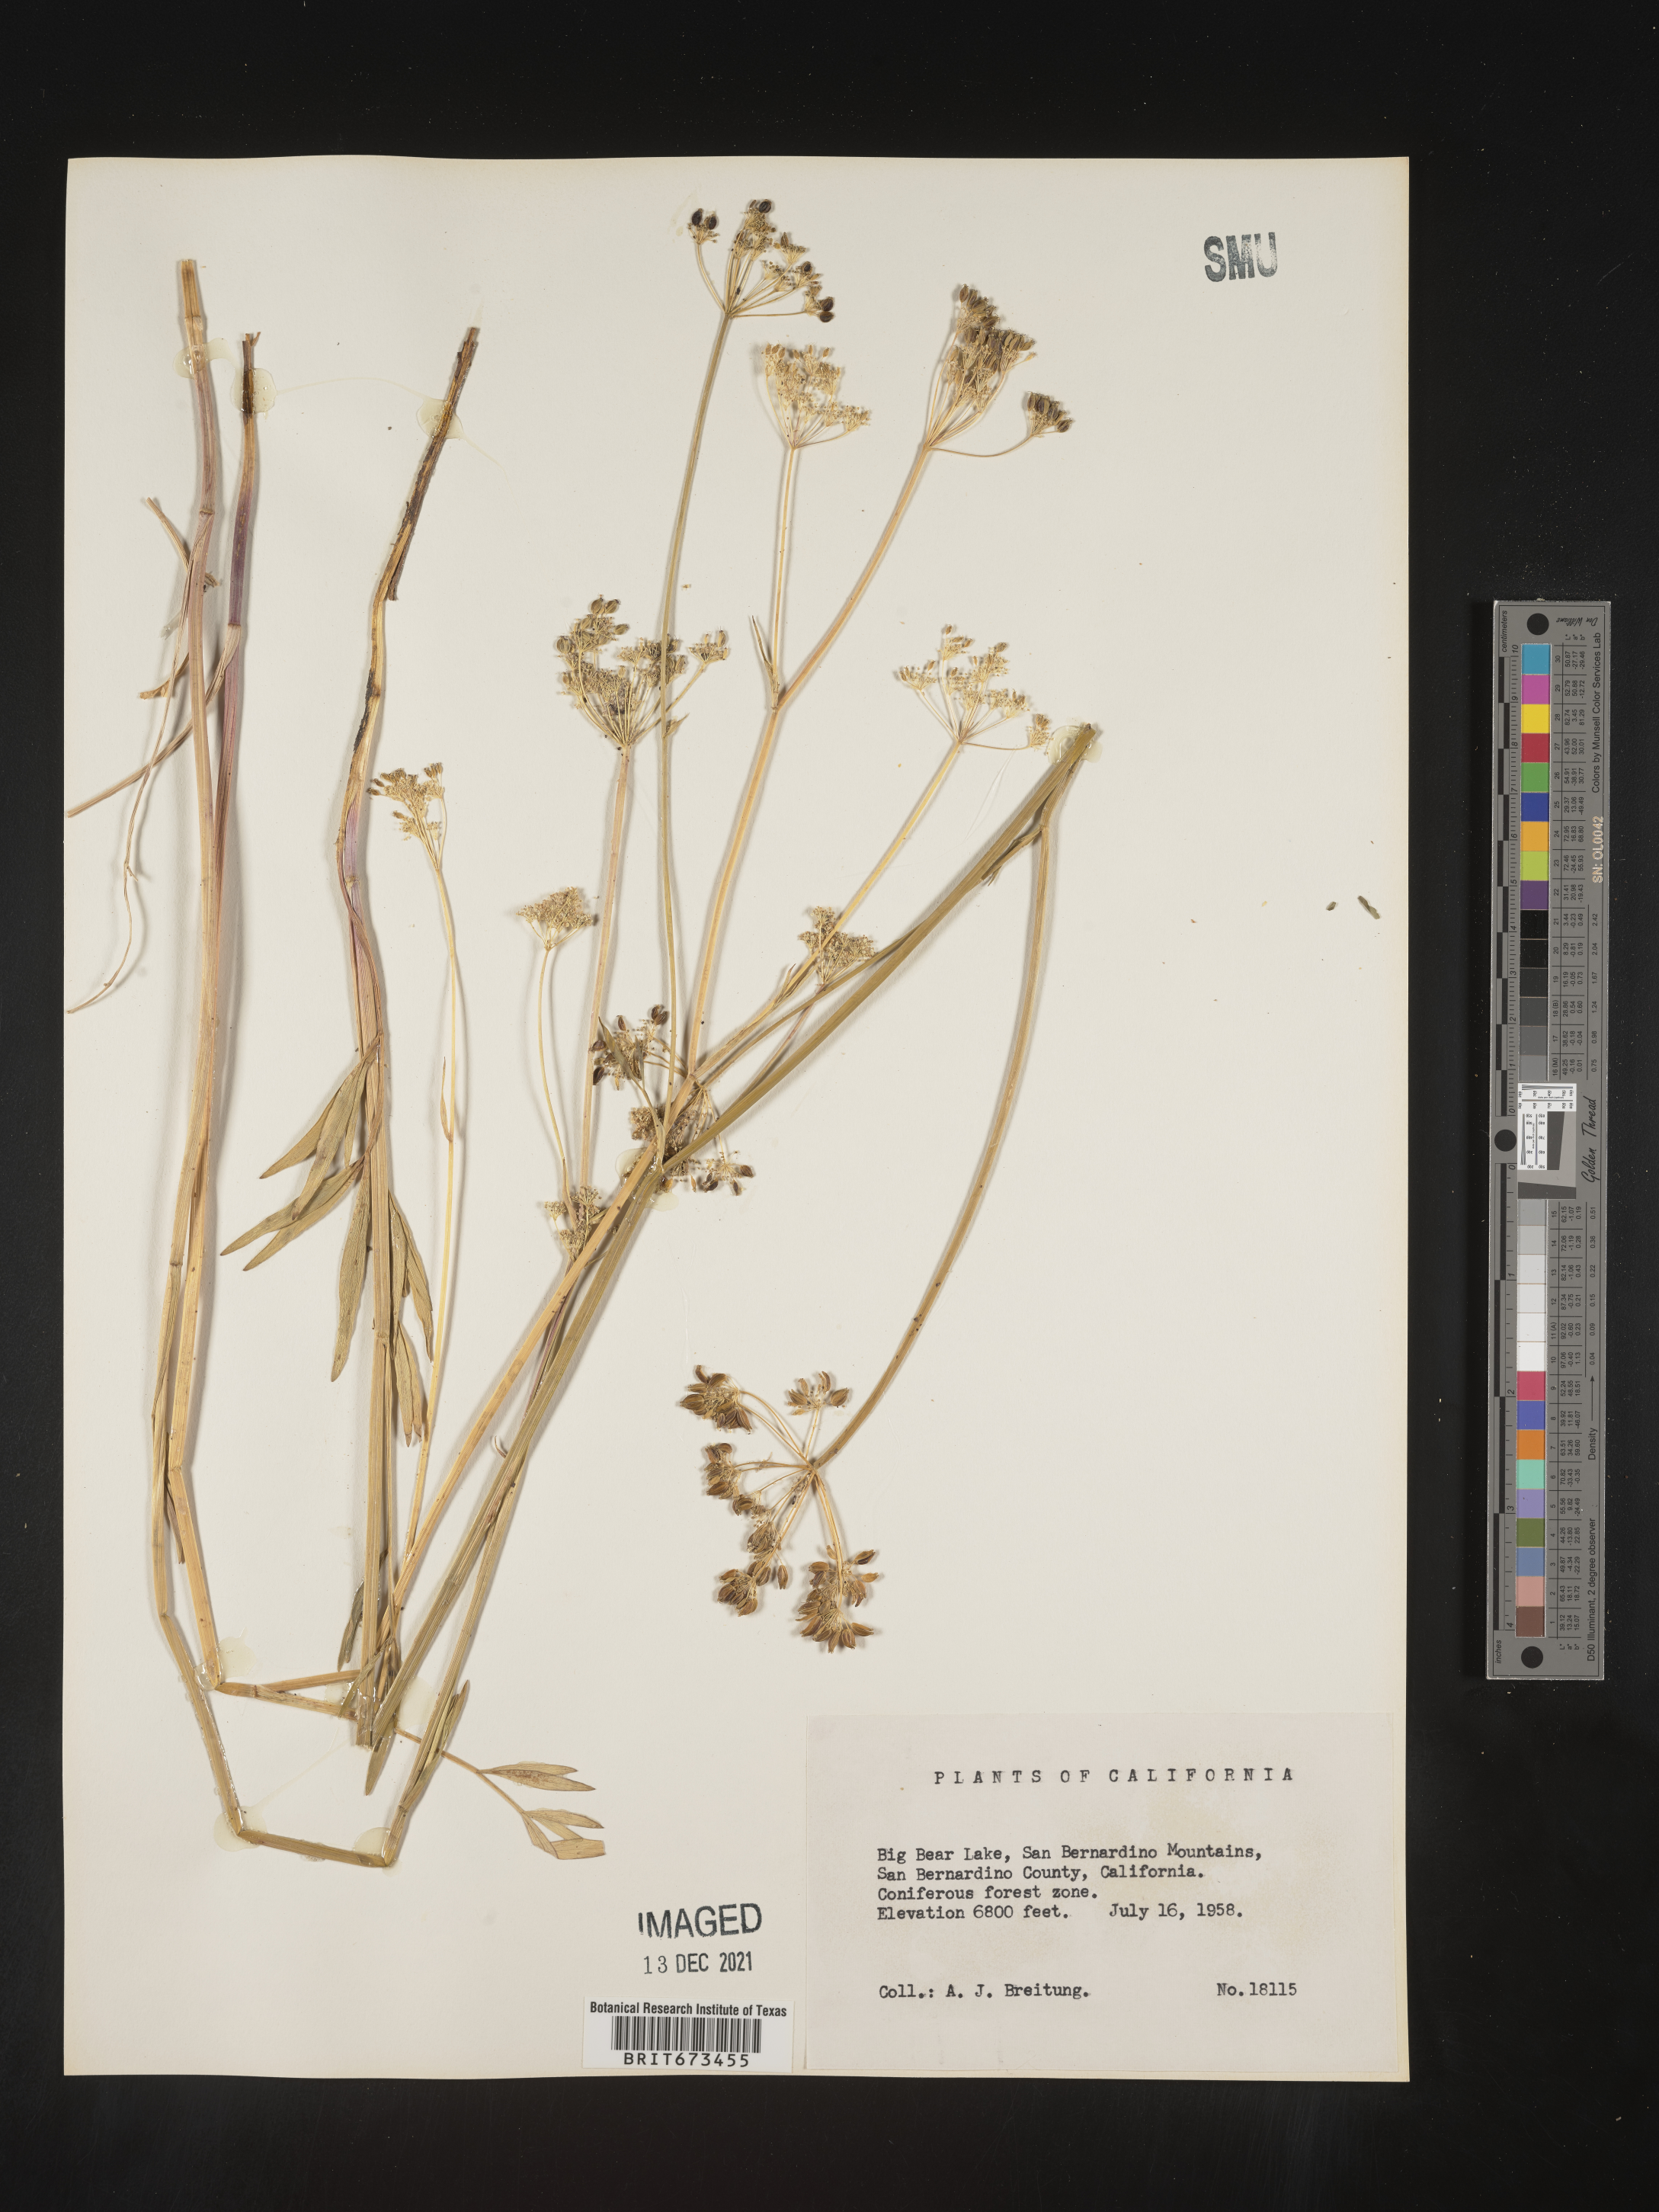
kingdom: Plantae
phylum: Tracheophyta
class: Magnoliopsida
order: Apiales
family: Apiaceae
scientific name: Apiaceae
